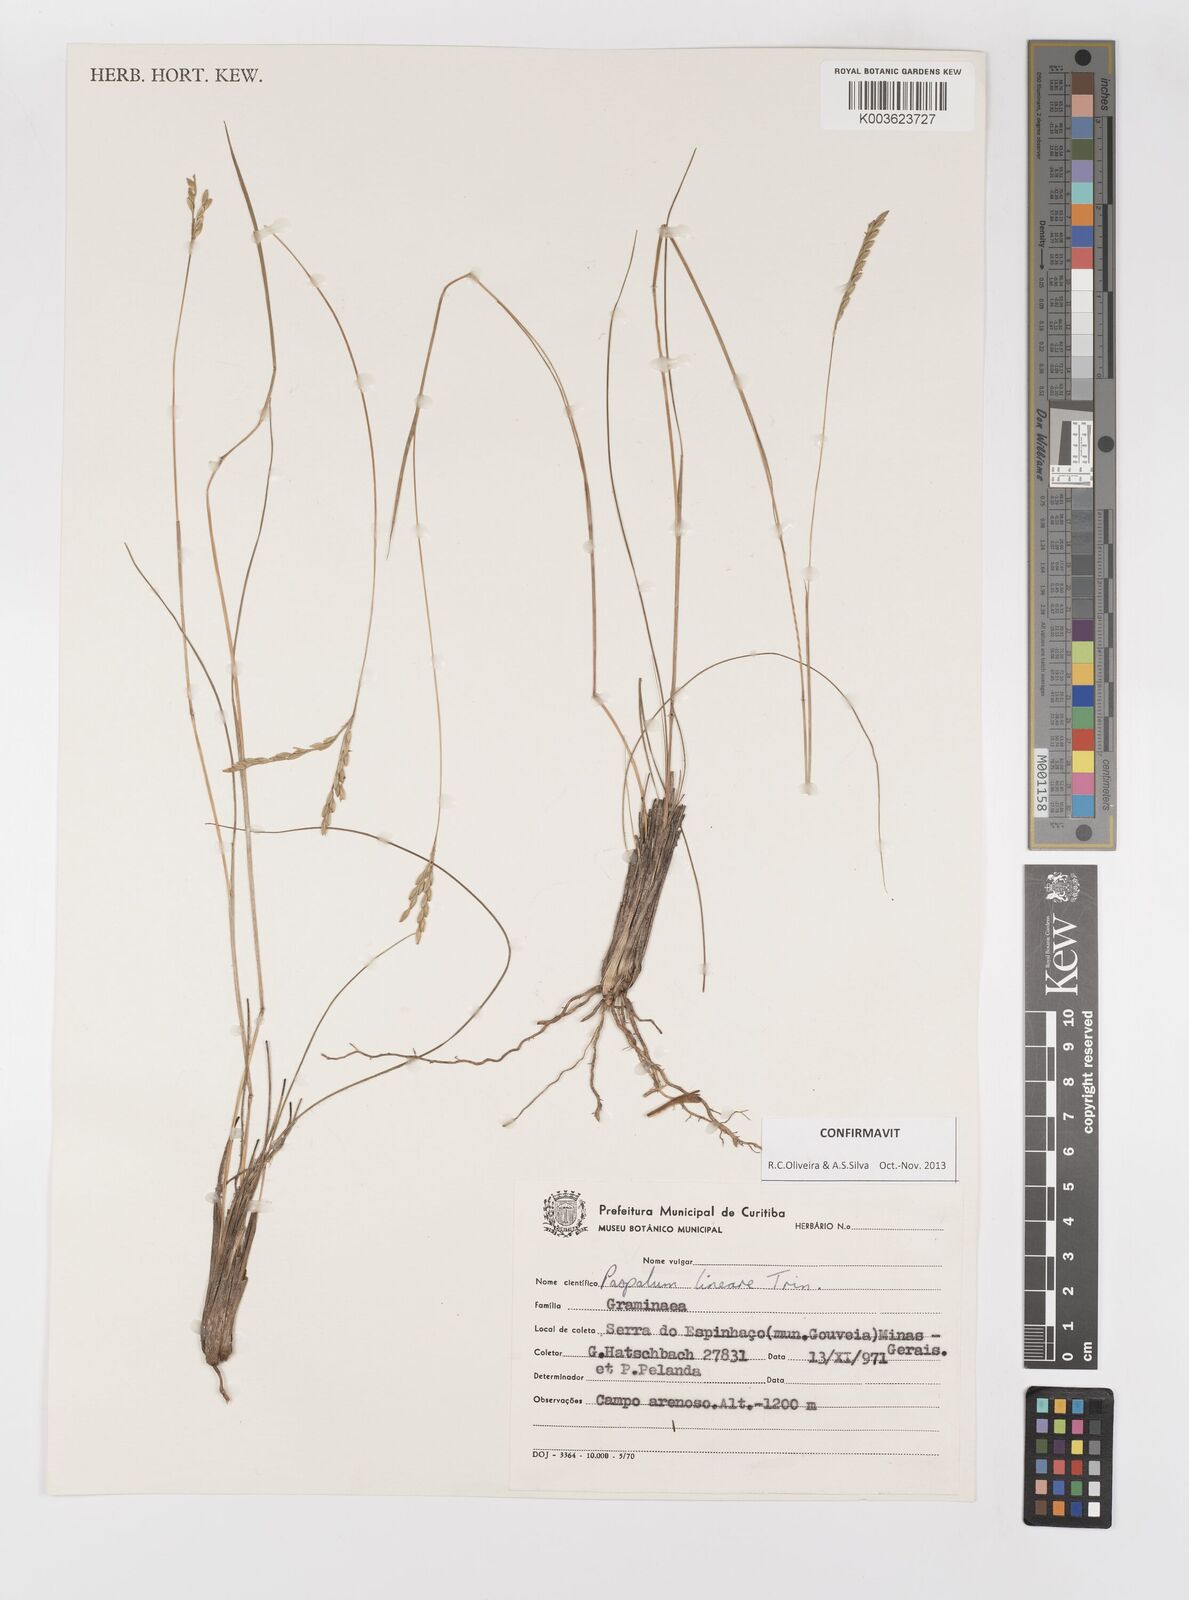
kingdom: Plantae
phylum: Tracheophyta
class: Liliopsida
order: Poales
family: Poaceae
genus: Paspalum
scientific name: Paspalum lineare
